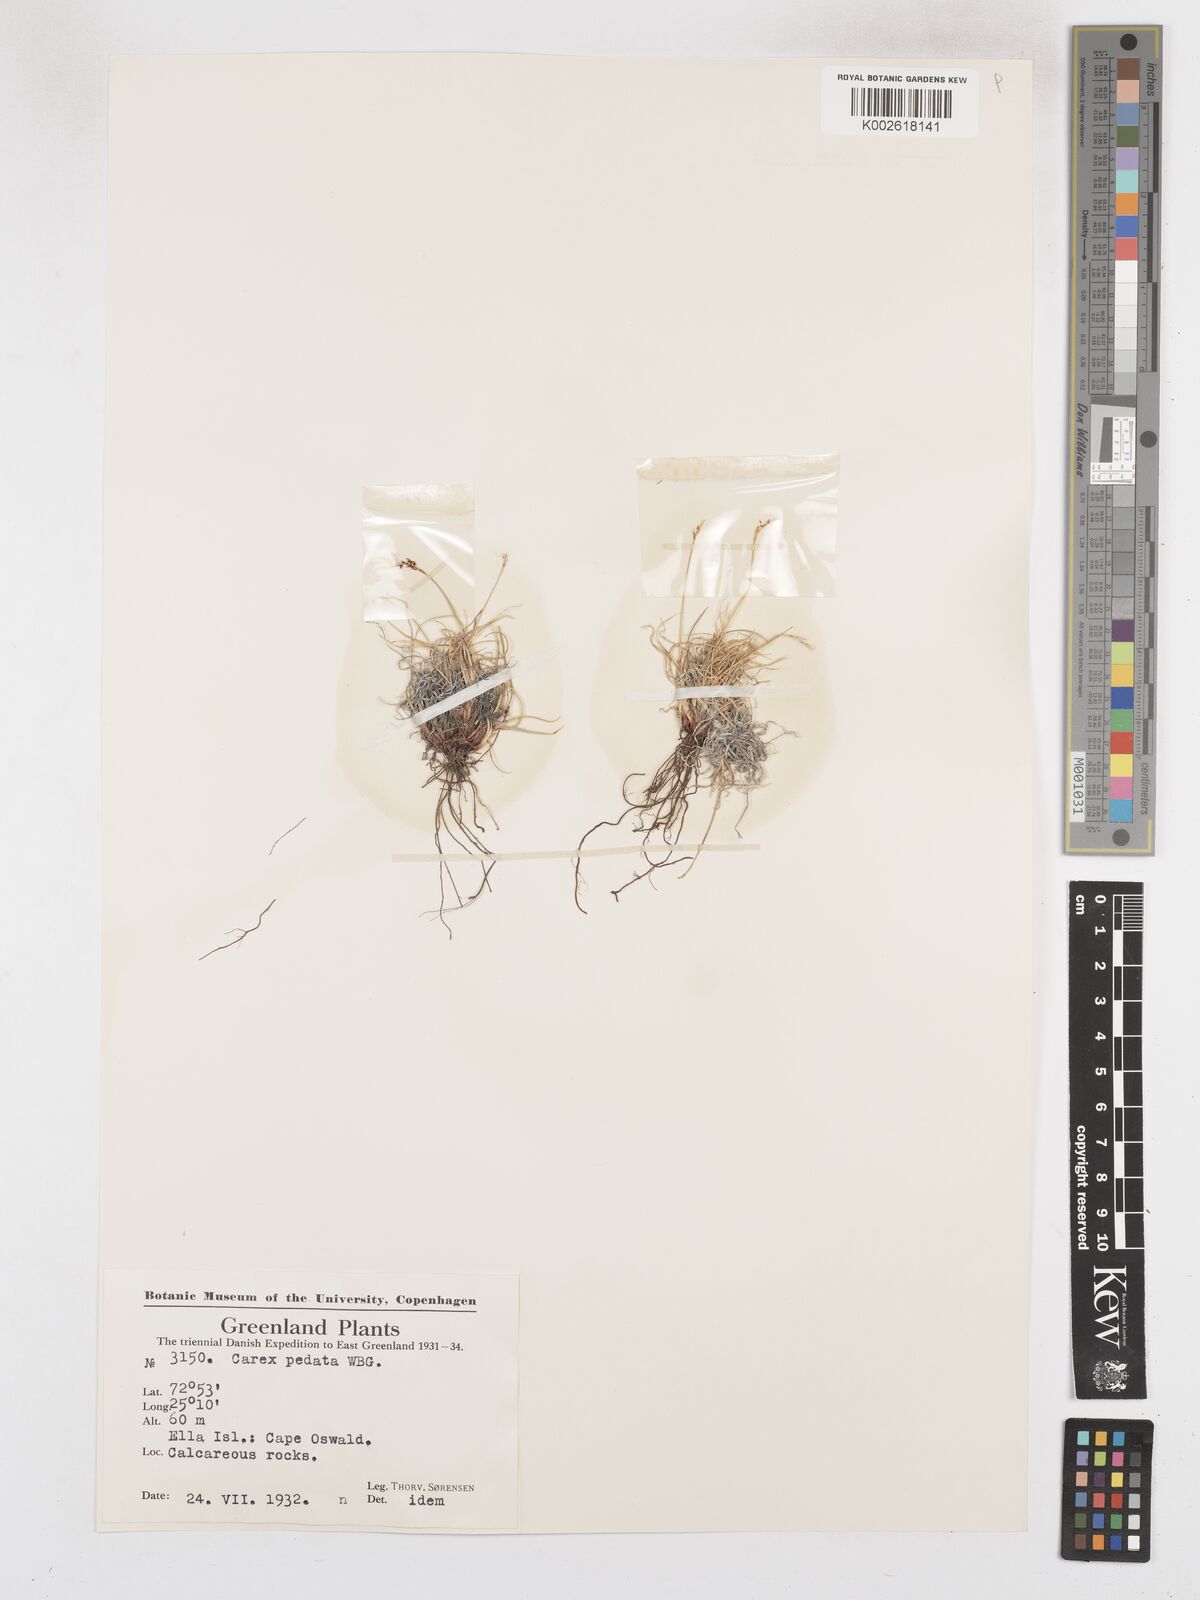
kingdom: Plantae
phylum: Tracheophyta
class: Liliopsida
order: Poales
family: Cyperaceae
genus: Carex
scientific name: Carex glacialis
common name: Newfoundland sedge
